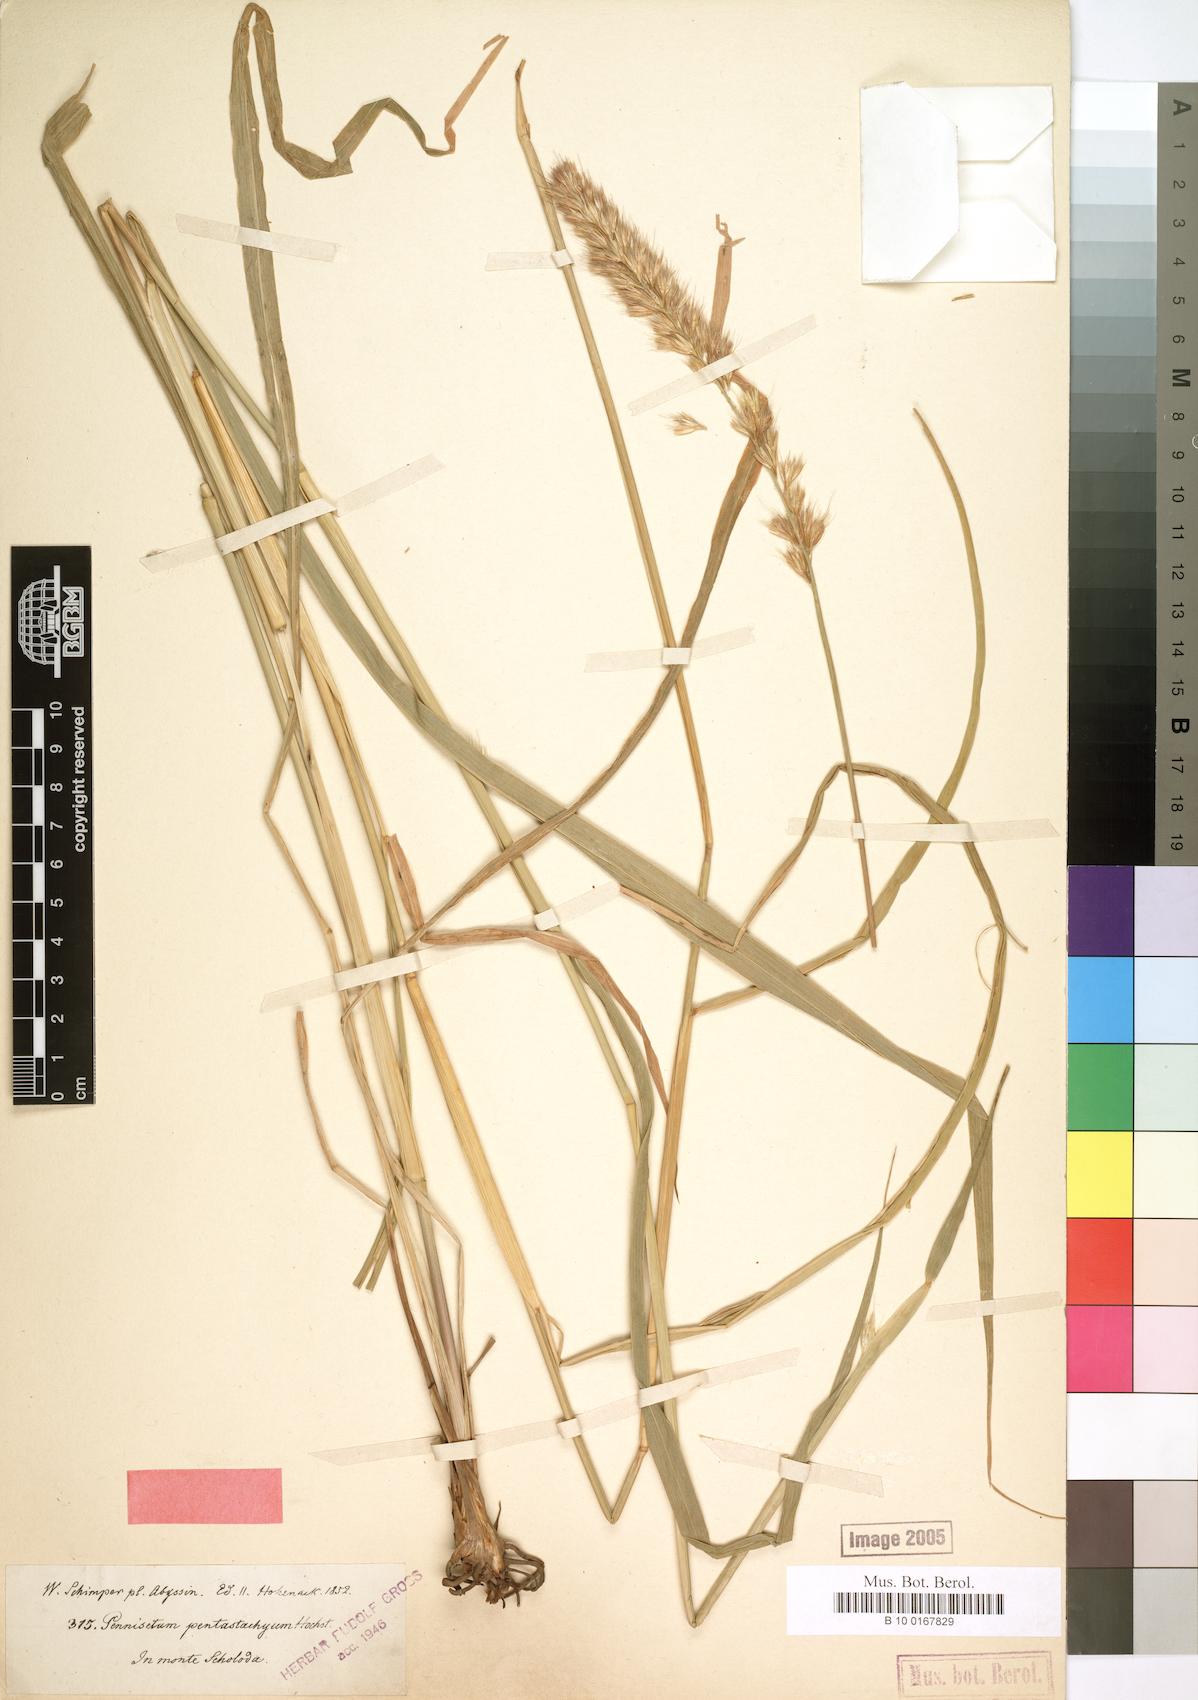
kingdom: Plantae
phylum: Tracheophyta
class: Liliopsida
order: Poales
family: Poaceae
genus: Cenchrus
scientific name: Cenchrus squamulatus
